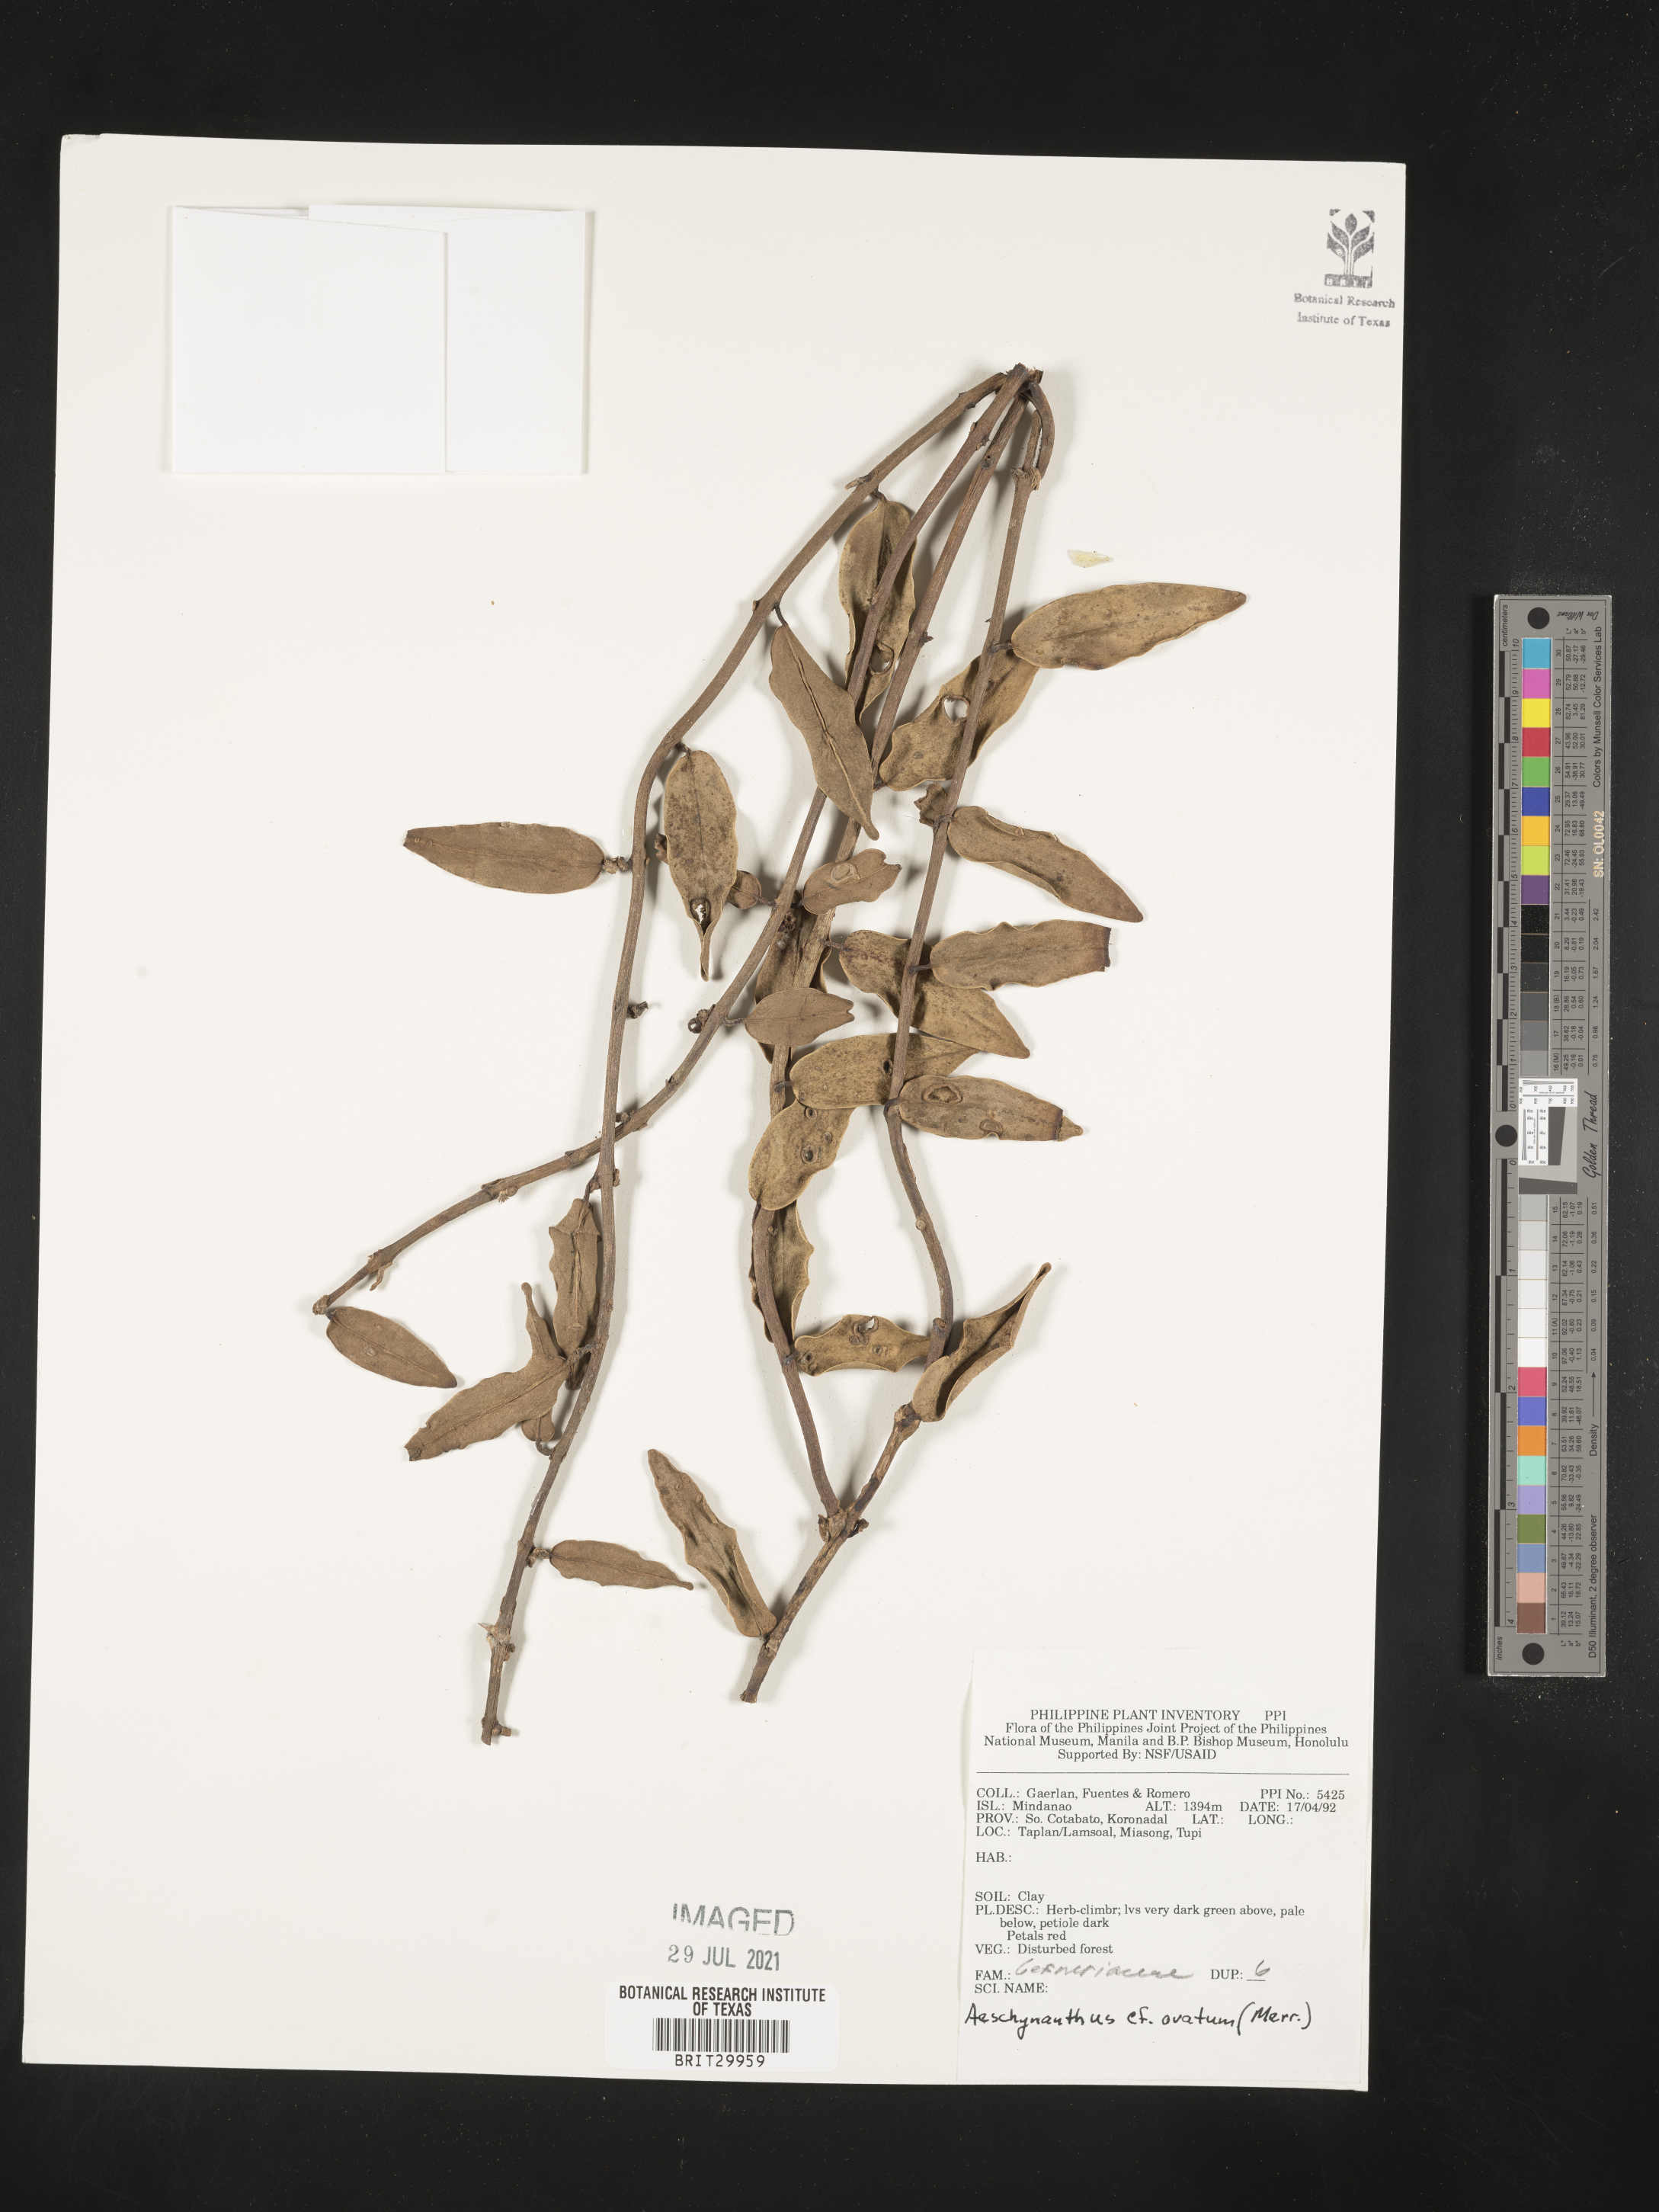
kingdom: Plantae
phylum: Tracheophyta
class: Magnoliopsida
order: Lamiales
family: Gesneriaceae
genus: Aeschynanthus
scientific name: Aeschynanthus ovatus
